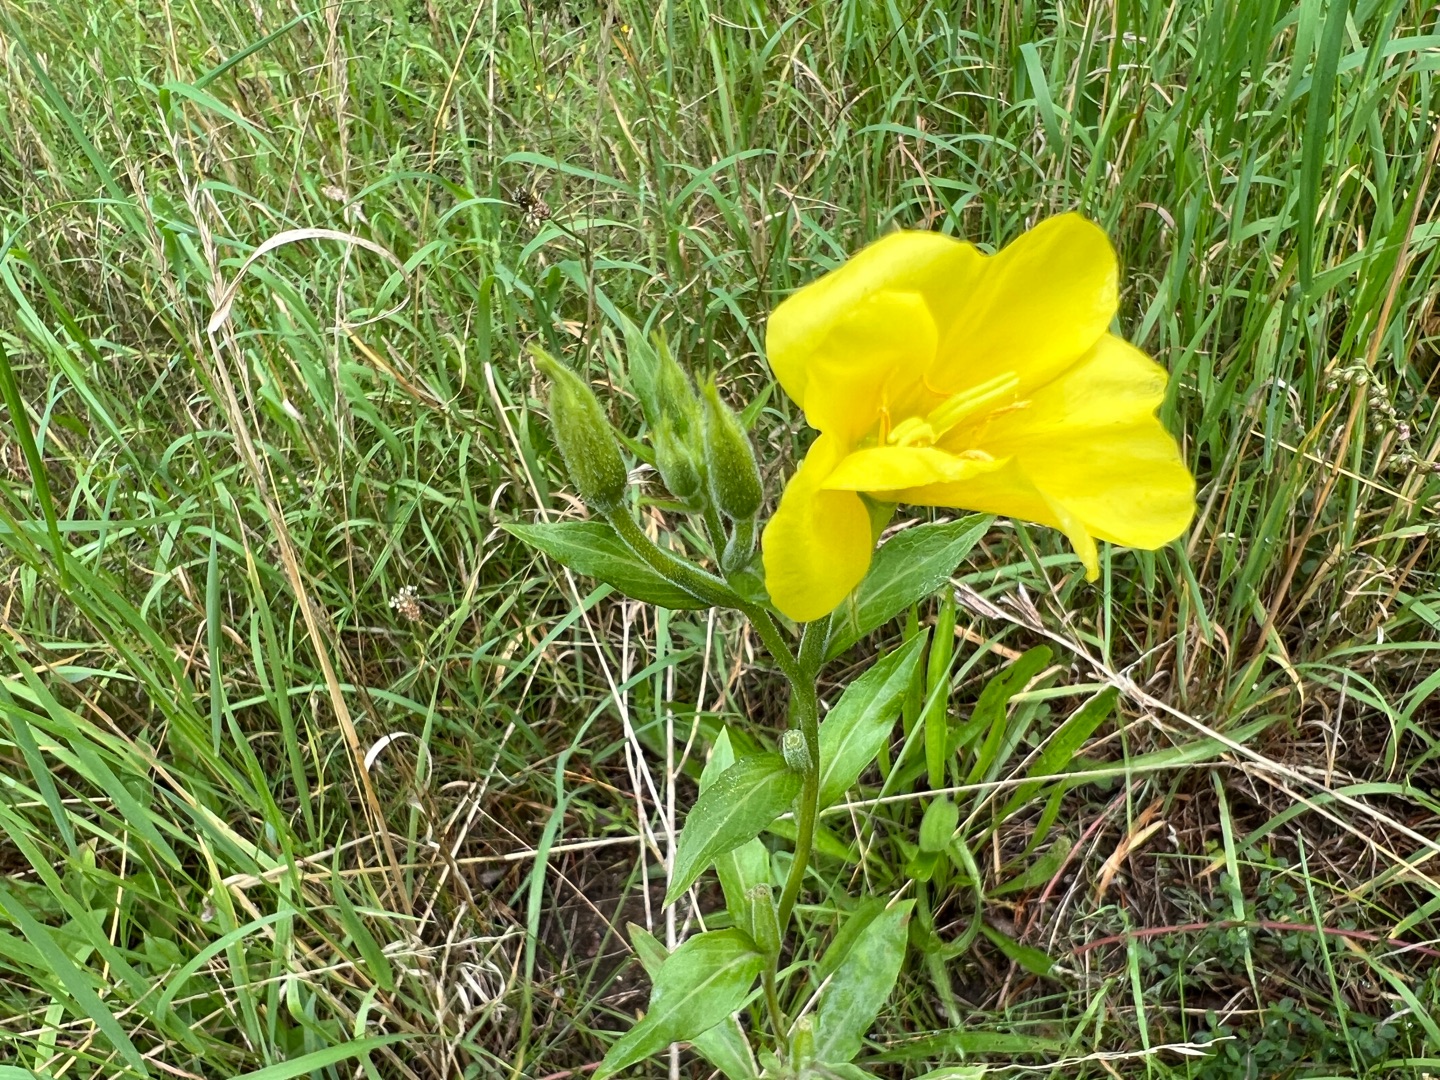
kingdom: Plantae
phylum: Tracheophyta
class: Magnoliopsida
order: Myrtales
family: Onagraceae
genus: Oenothera
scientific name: Oenothera
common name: Natlysslægten
